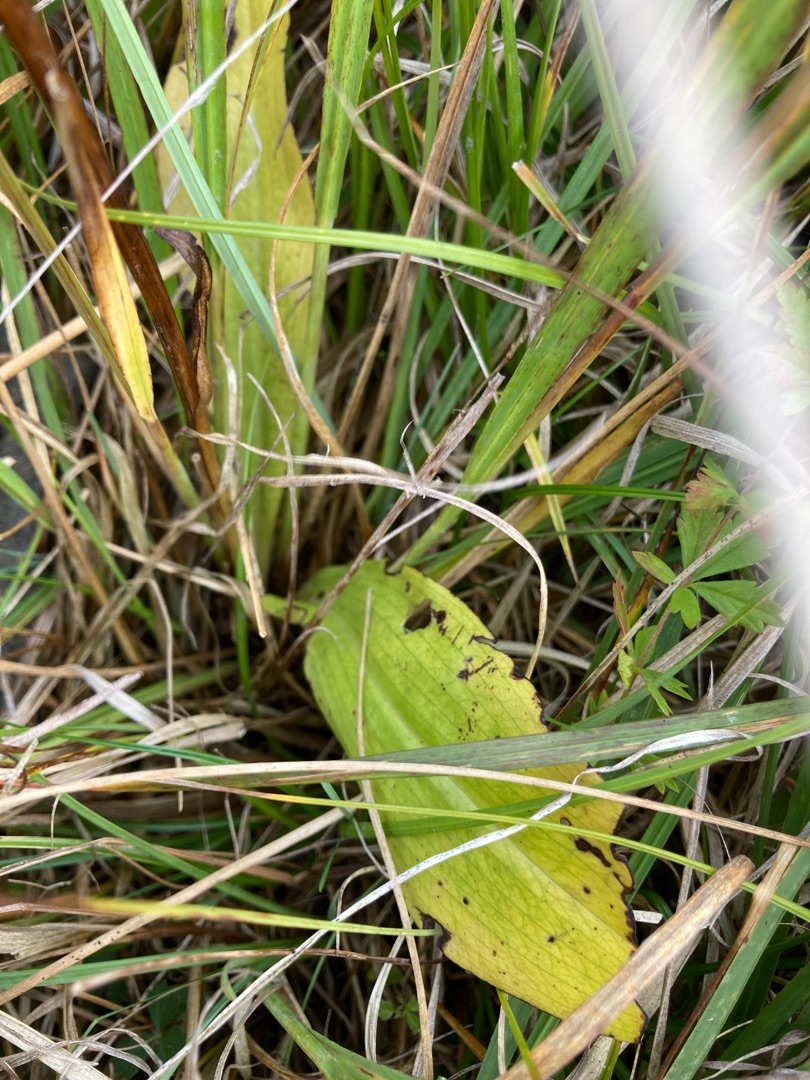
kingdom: Plantae
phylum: Tracheophyta
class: Liliopsida
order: Asparagales
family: Orchidaceae
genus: Platanthera
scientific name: Platanthera
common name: Gøgeliljeslægten
